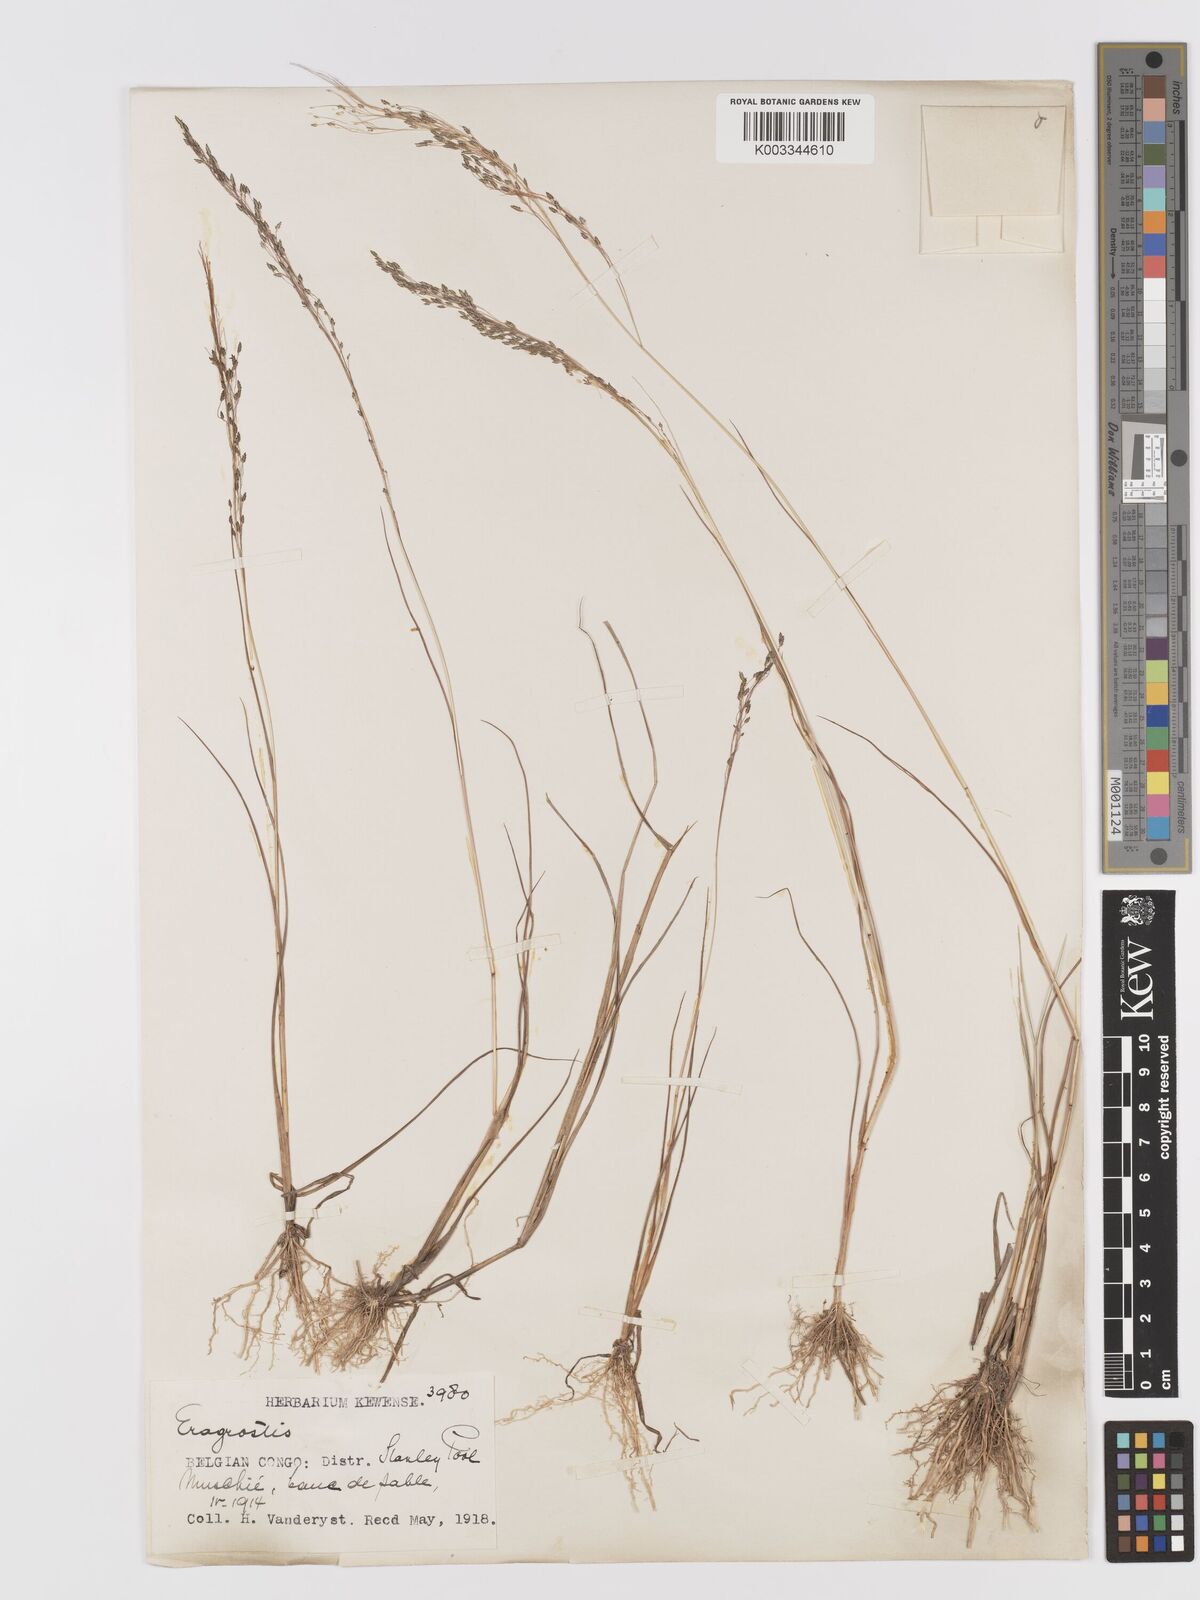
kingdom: Plantae
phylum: Tracheophyta
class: Liliopsida
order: Poales
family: Poaceae
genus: Eragrostis
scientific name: Eragrostis gangetica
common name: Slimflower lovegrass
